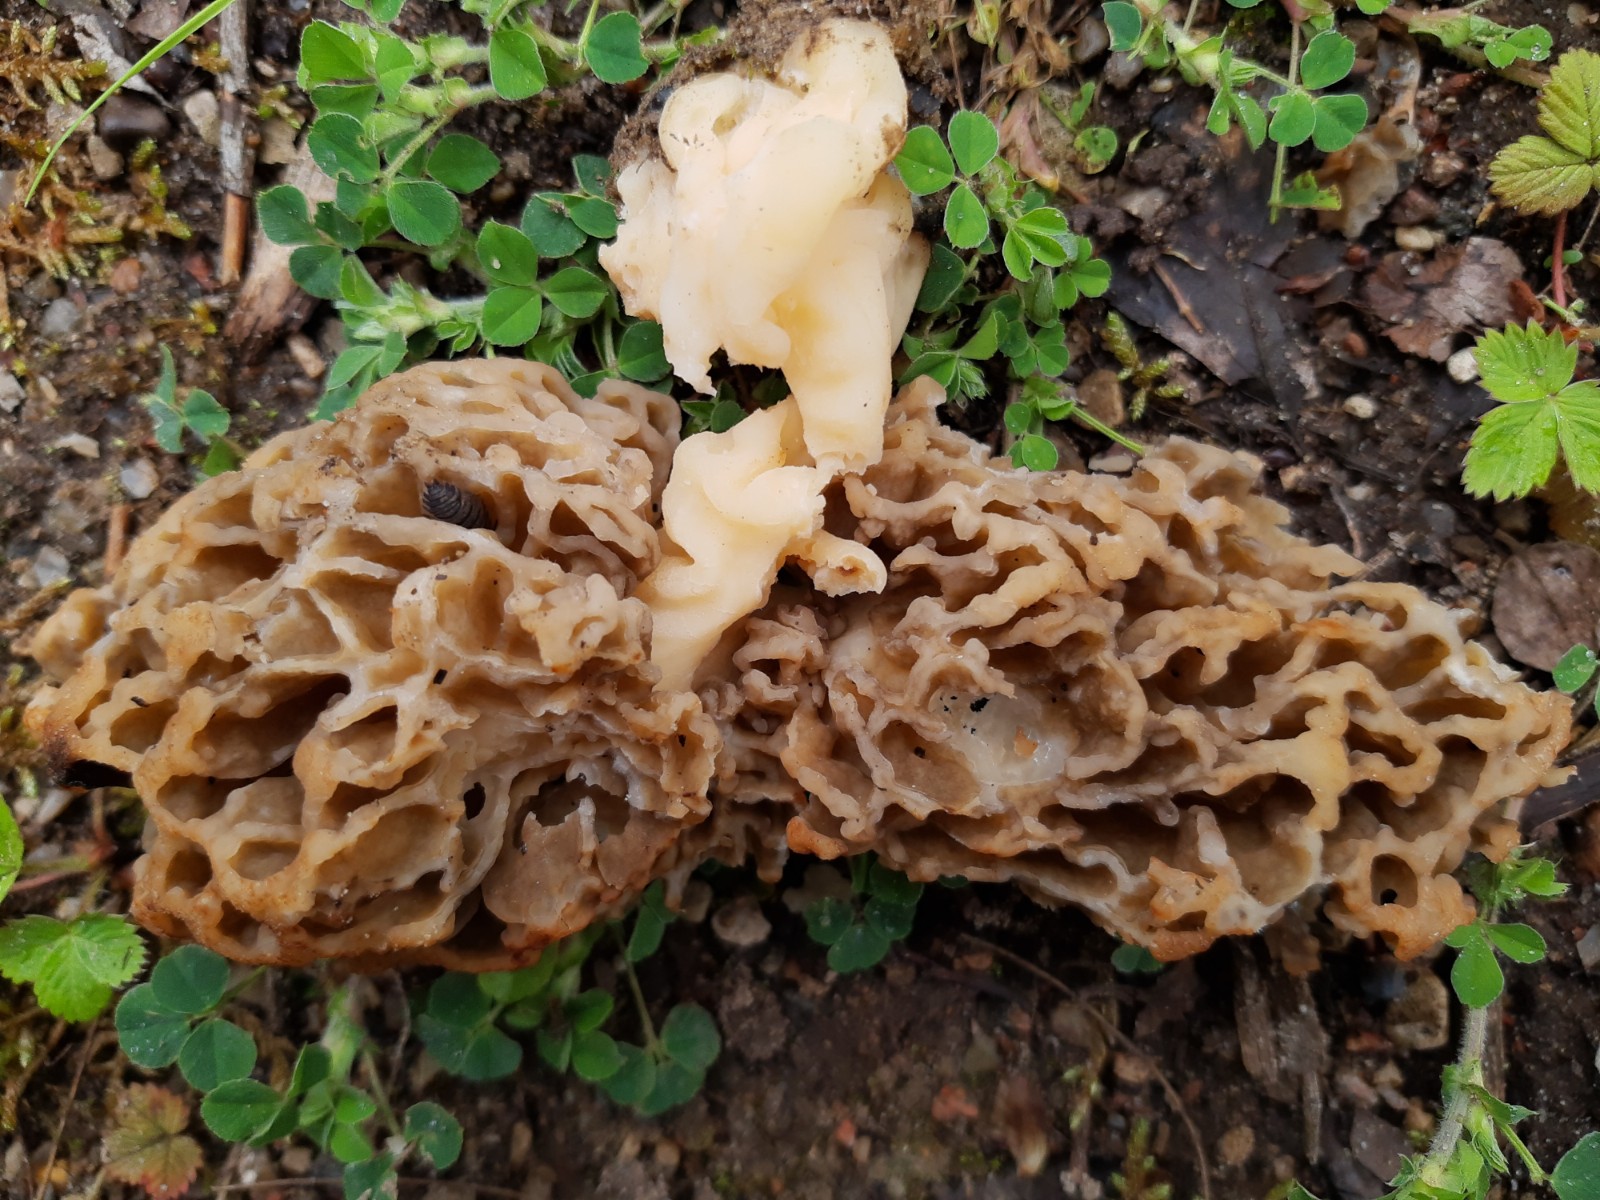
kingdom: Fungi
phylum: Ascomycota
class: Pezizomycetes
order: Pezizales
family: Morchellaceae
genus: Morchella
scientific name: Morchella esculenta
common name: almindelig morkel
